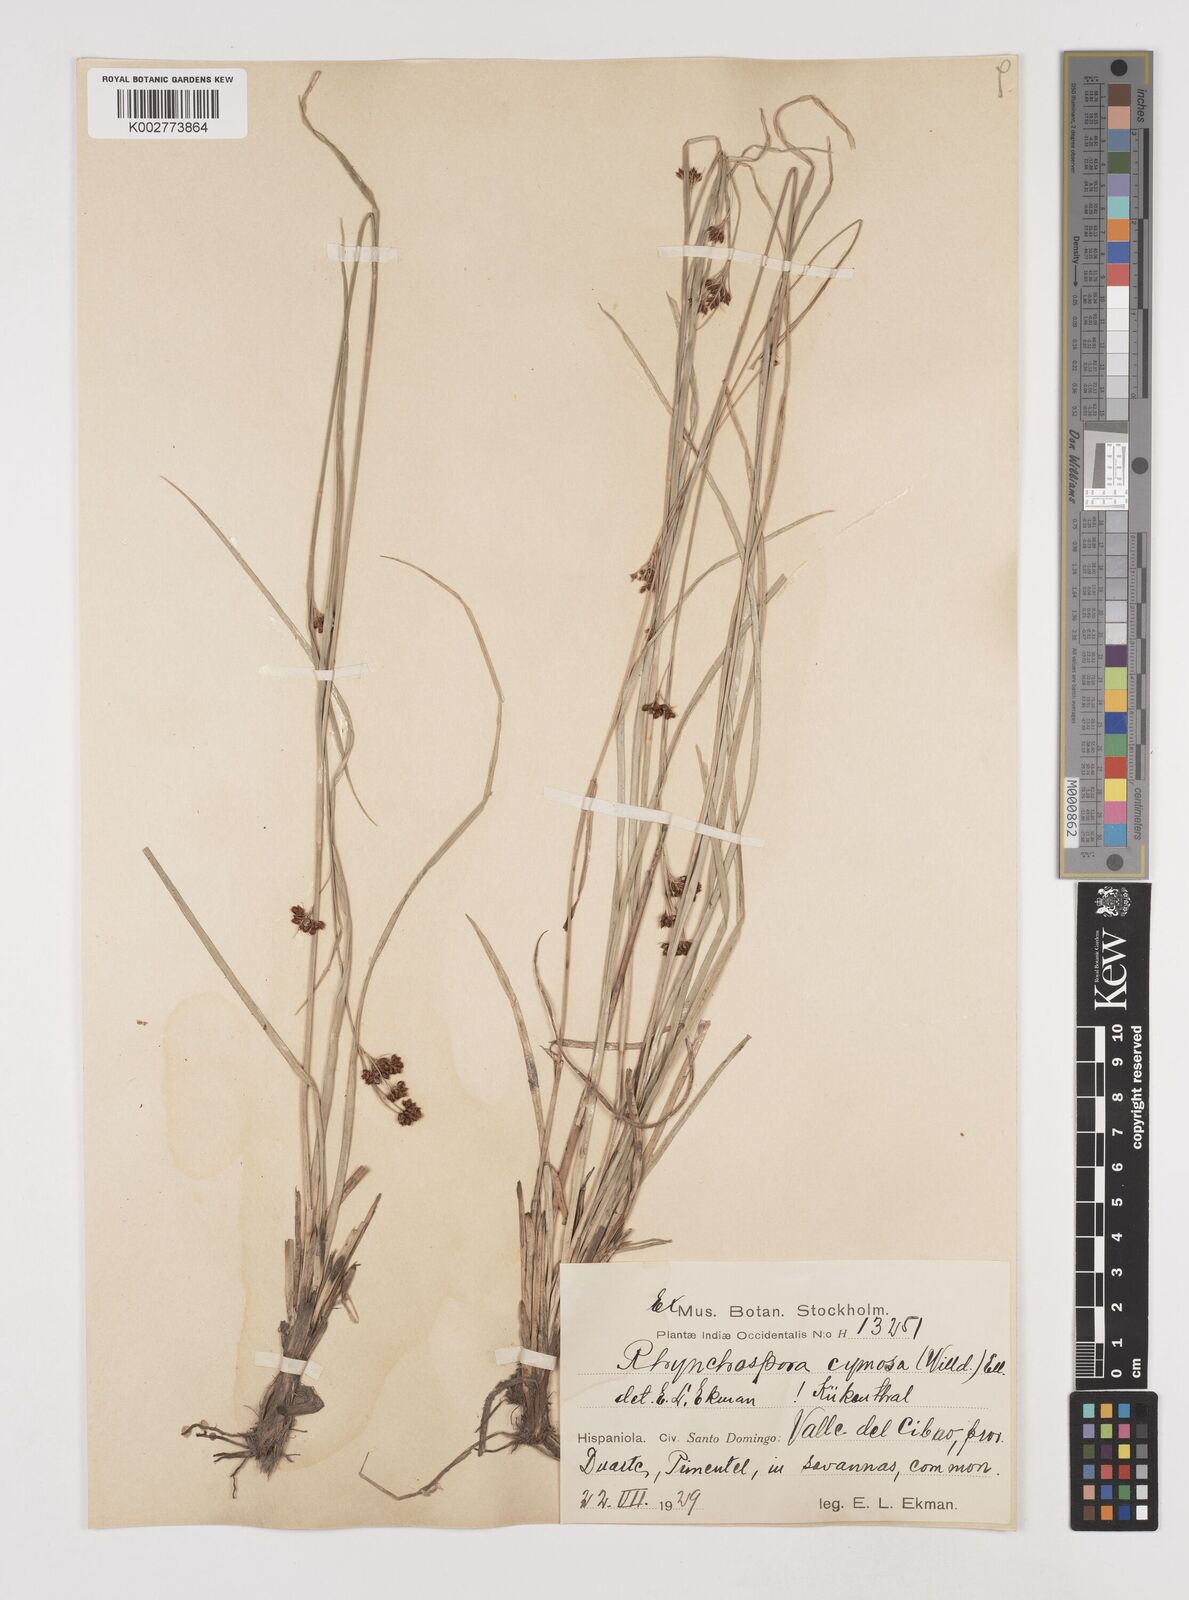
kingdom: Plantae
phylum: Tracheophyta
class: Liliopsida
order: Poales
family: Cyperaceae
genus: Scirpus
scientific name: Scirpus polyphyllus
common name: Leafy bulrush
